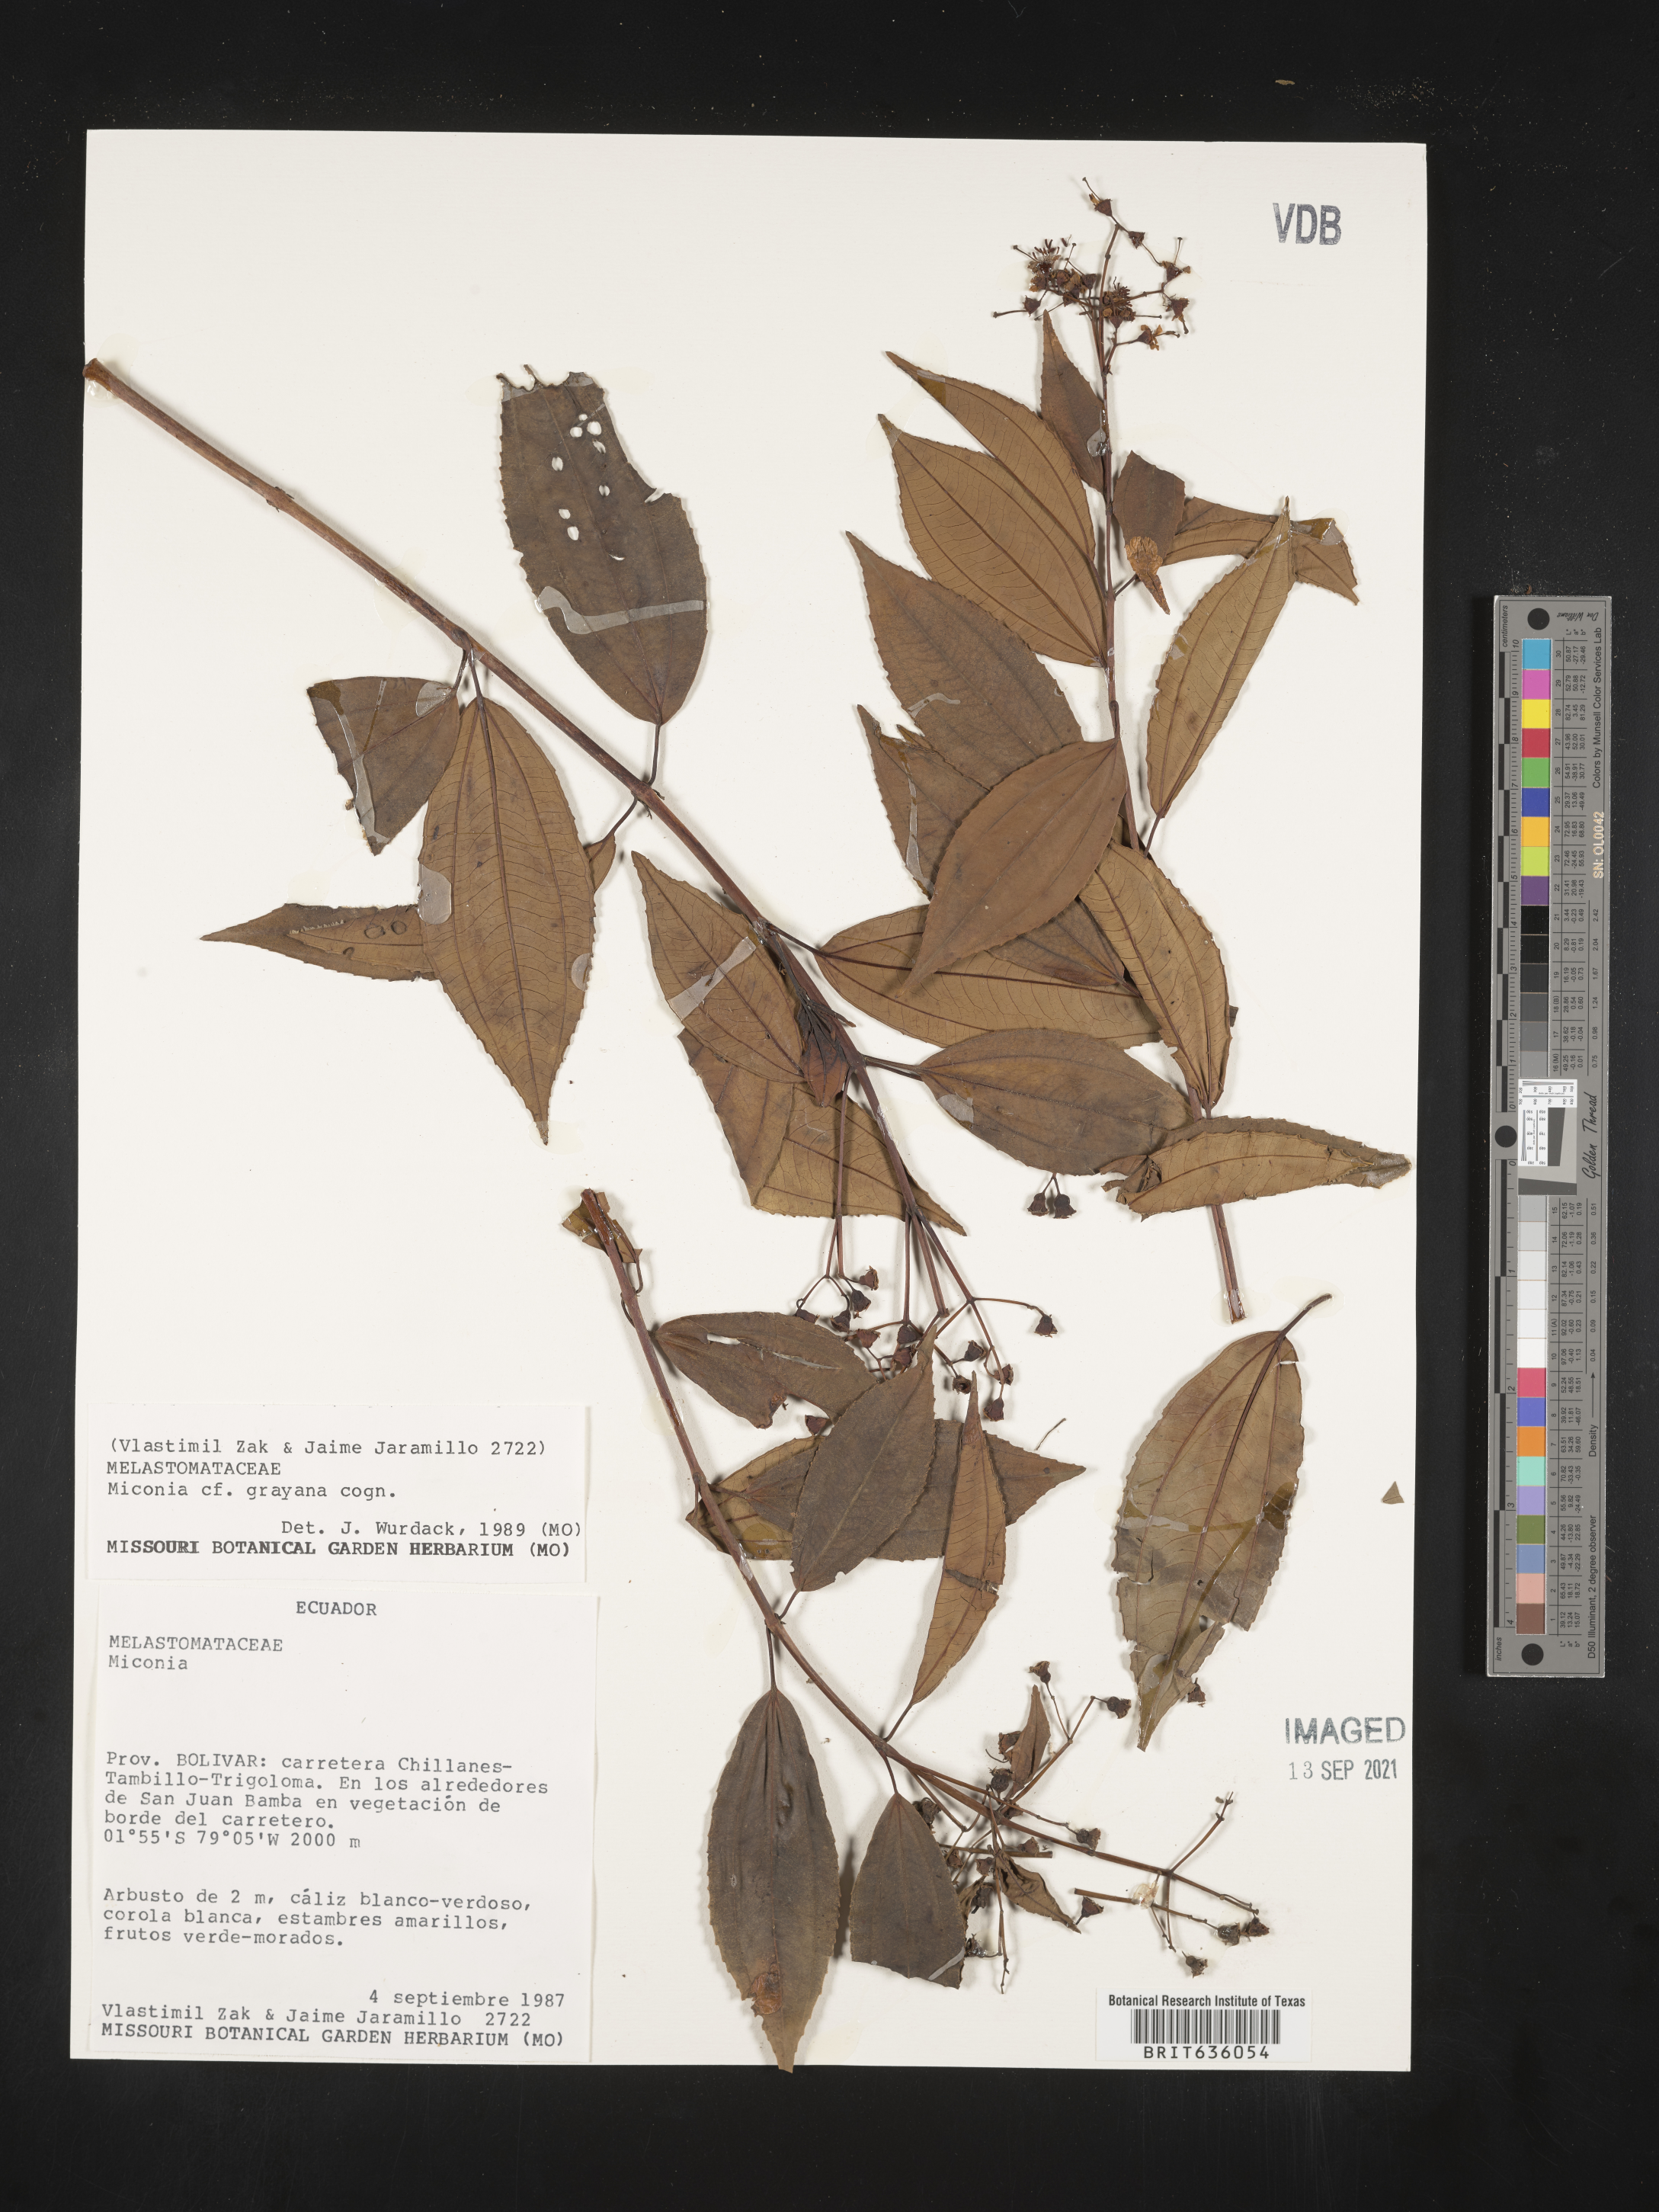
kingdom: Plantae
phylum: Tracheophyta
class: Magnoliopsida
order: Myrtales
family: Melastomataceae
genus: Miconia
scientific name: Miconia
